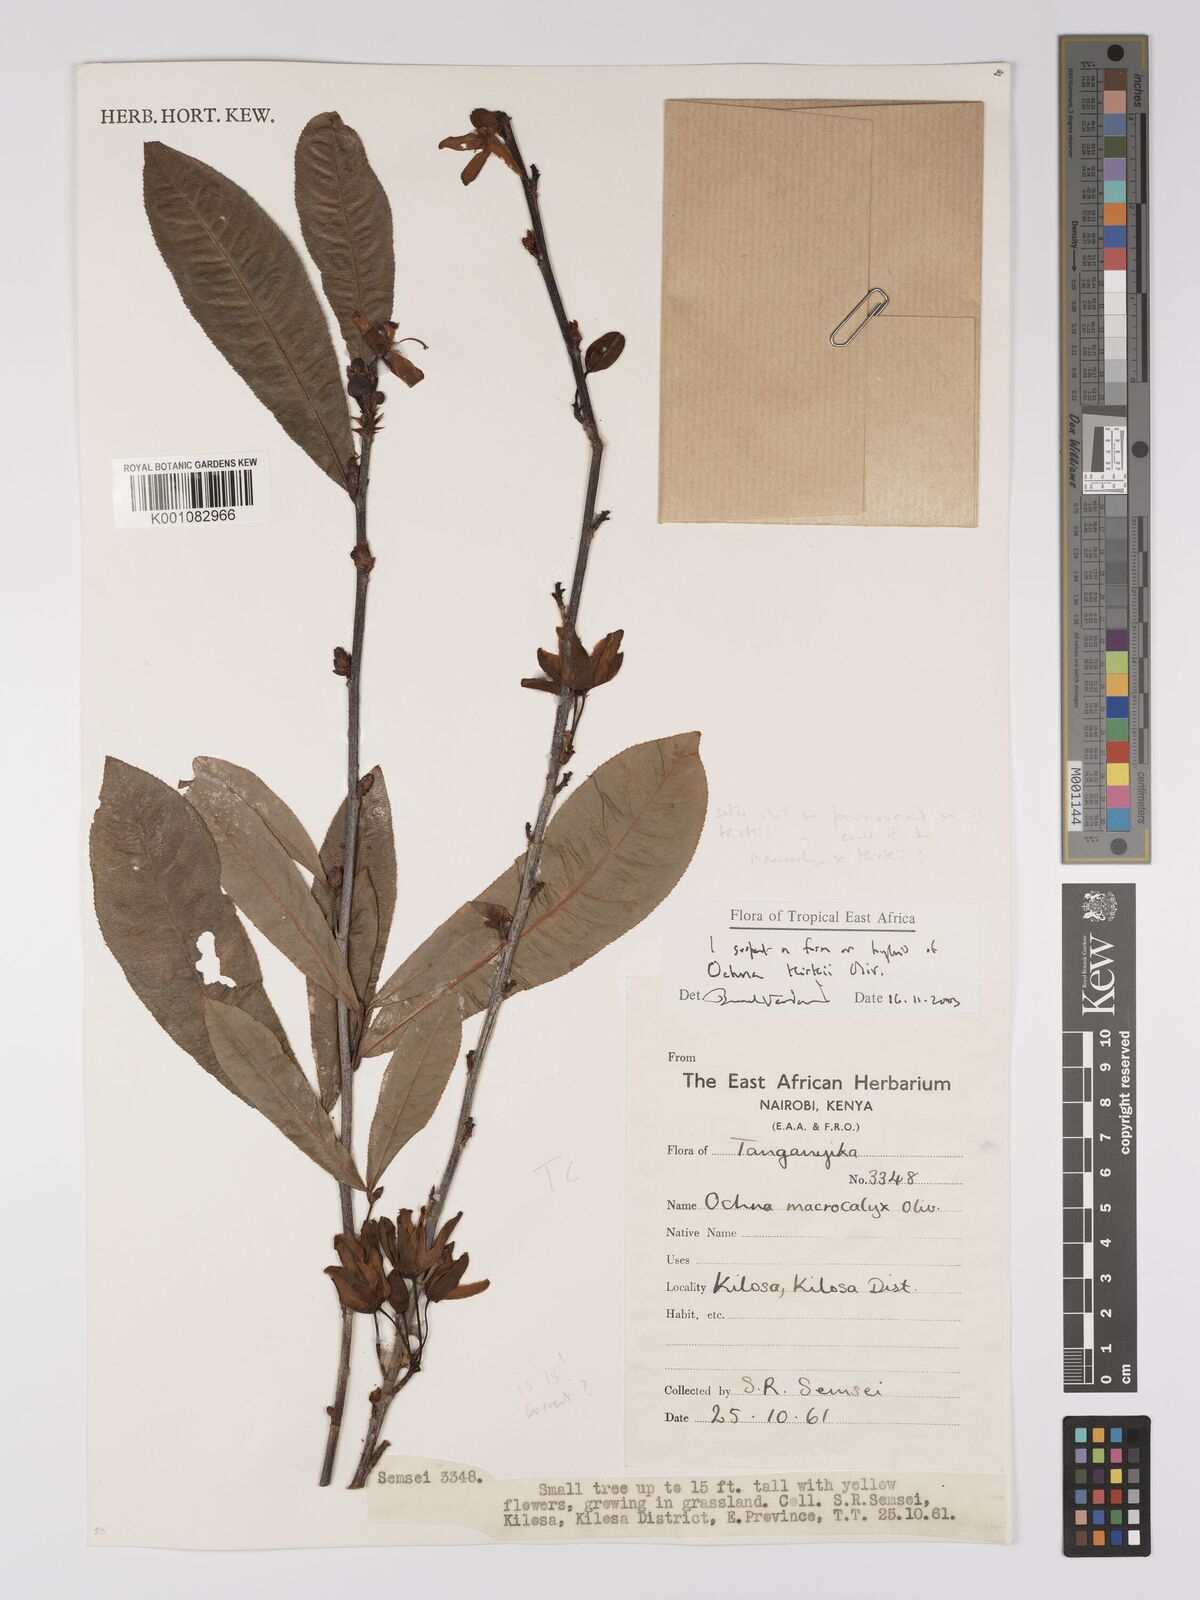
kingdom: Plantae
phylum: Tracheophyta
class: Magnoliopsida
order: Malpighiales
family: Ochnaceae
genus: Ochna
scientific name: Ochna macrocalyx
